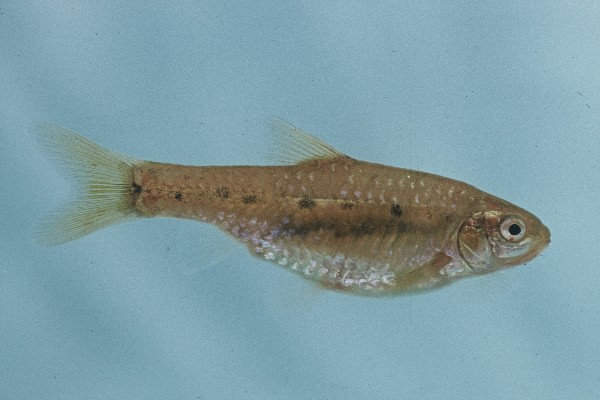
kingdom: Animalia
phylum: Chordata
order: Cypriniformes
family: Cyprinidae
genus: Enteromius
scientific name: Enteromius pallidus
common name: Goldie barb
